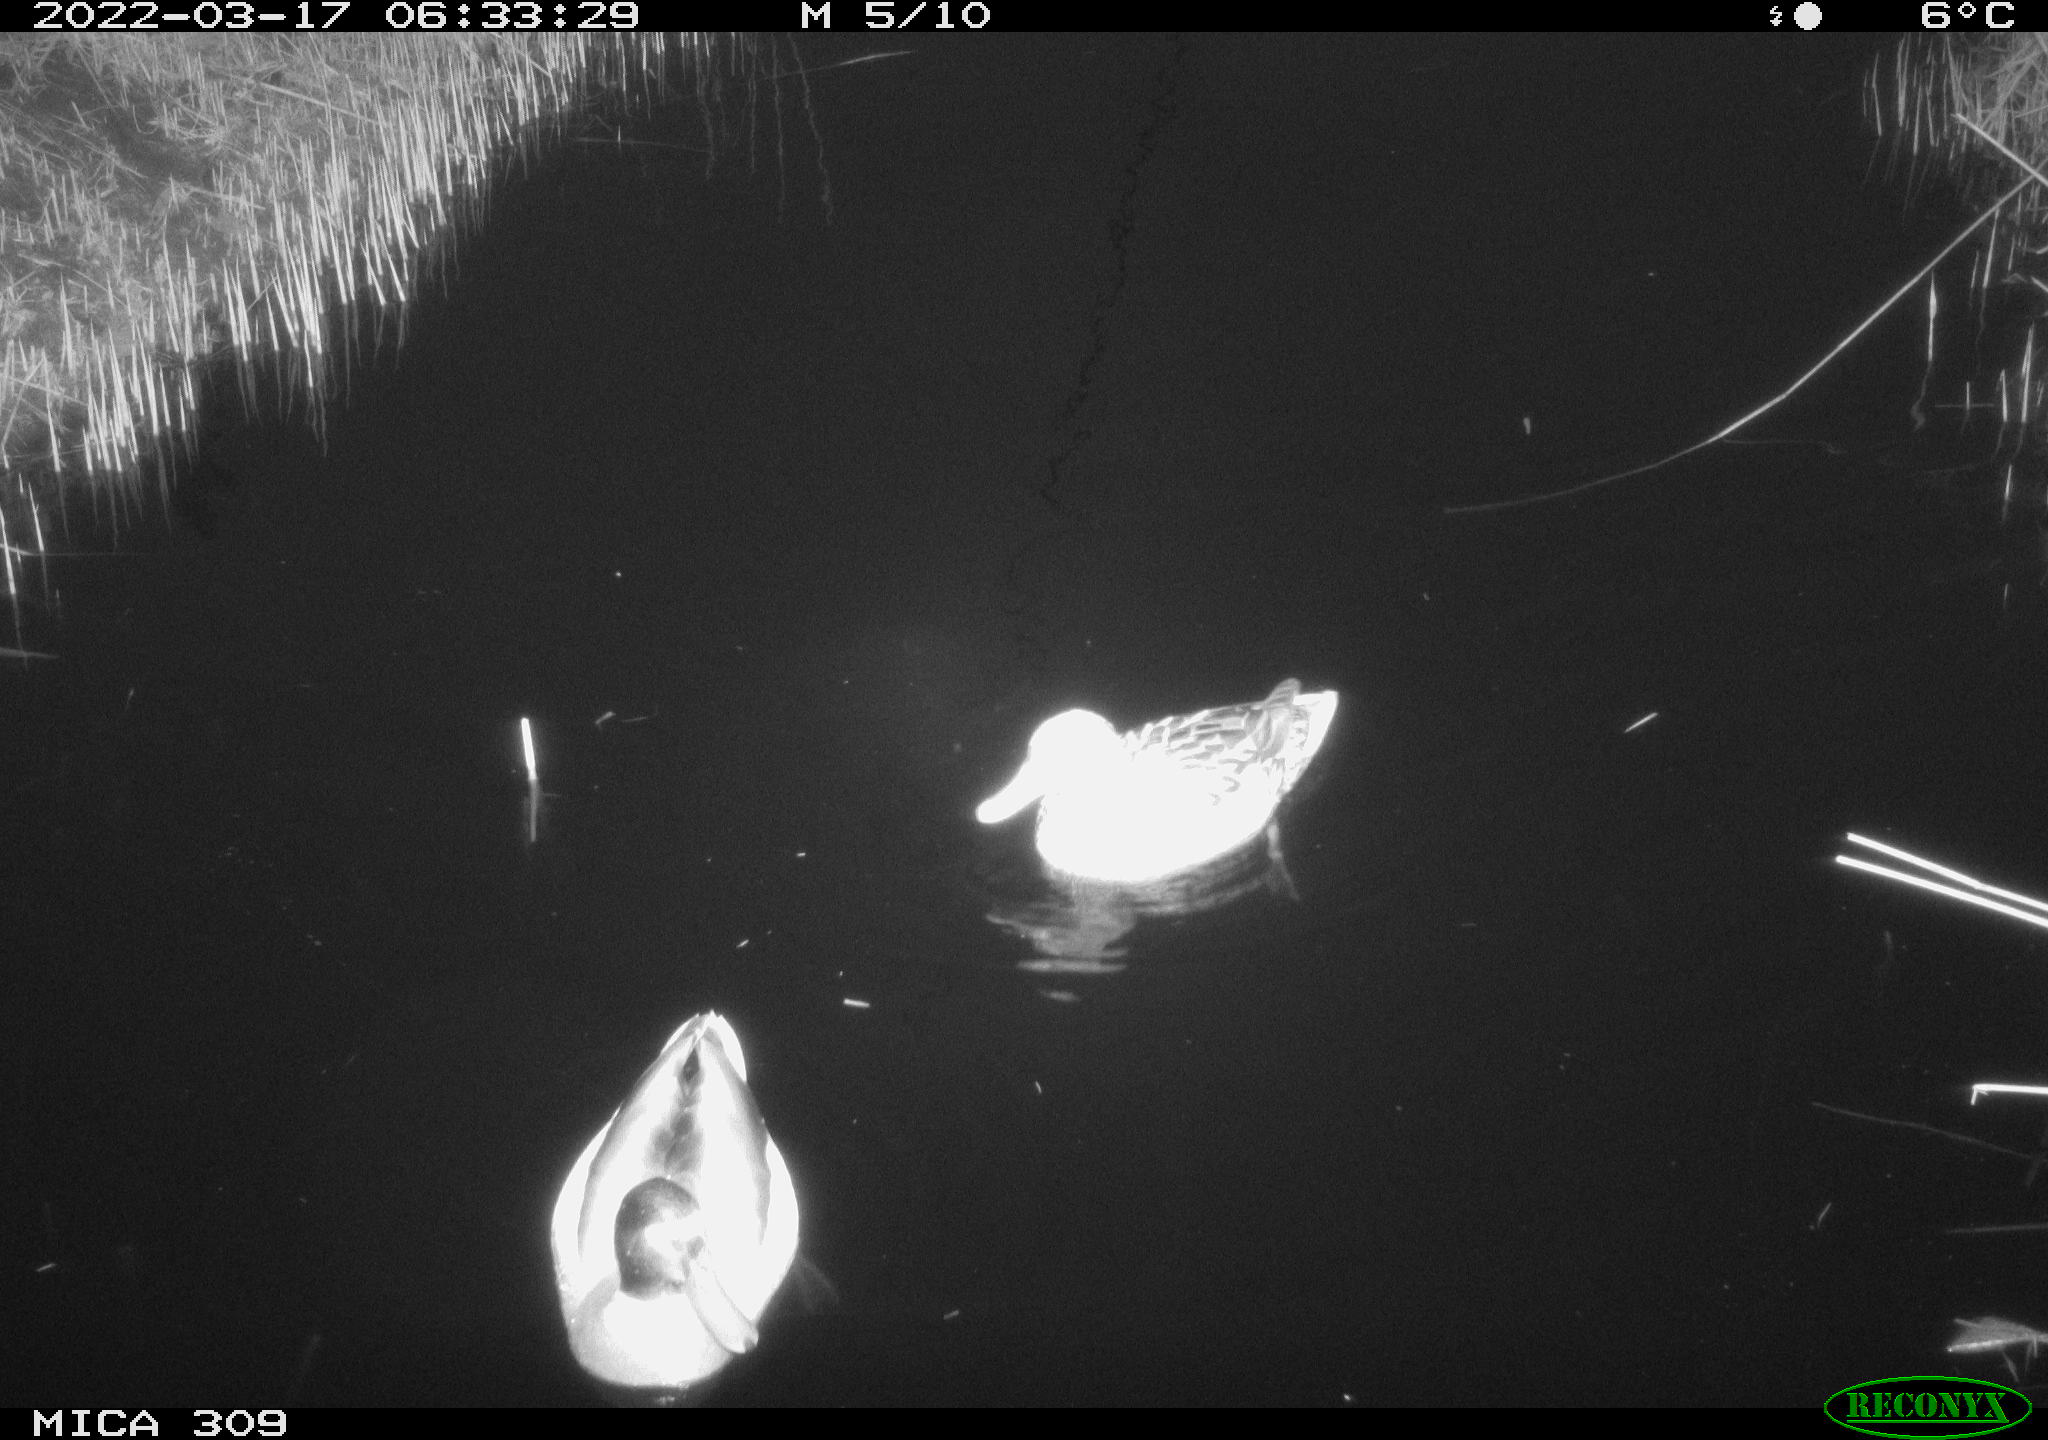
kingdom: Animalia
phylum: Chordata
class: Aves
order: Anseriformes
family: Anatidae
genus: Anas
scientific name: Anas platyrhynchos
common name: Mallard
